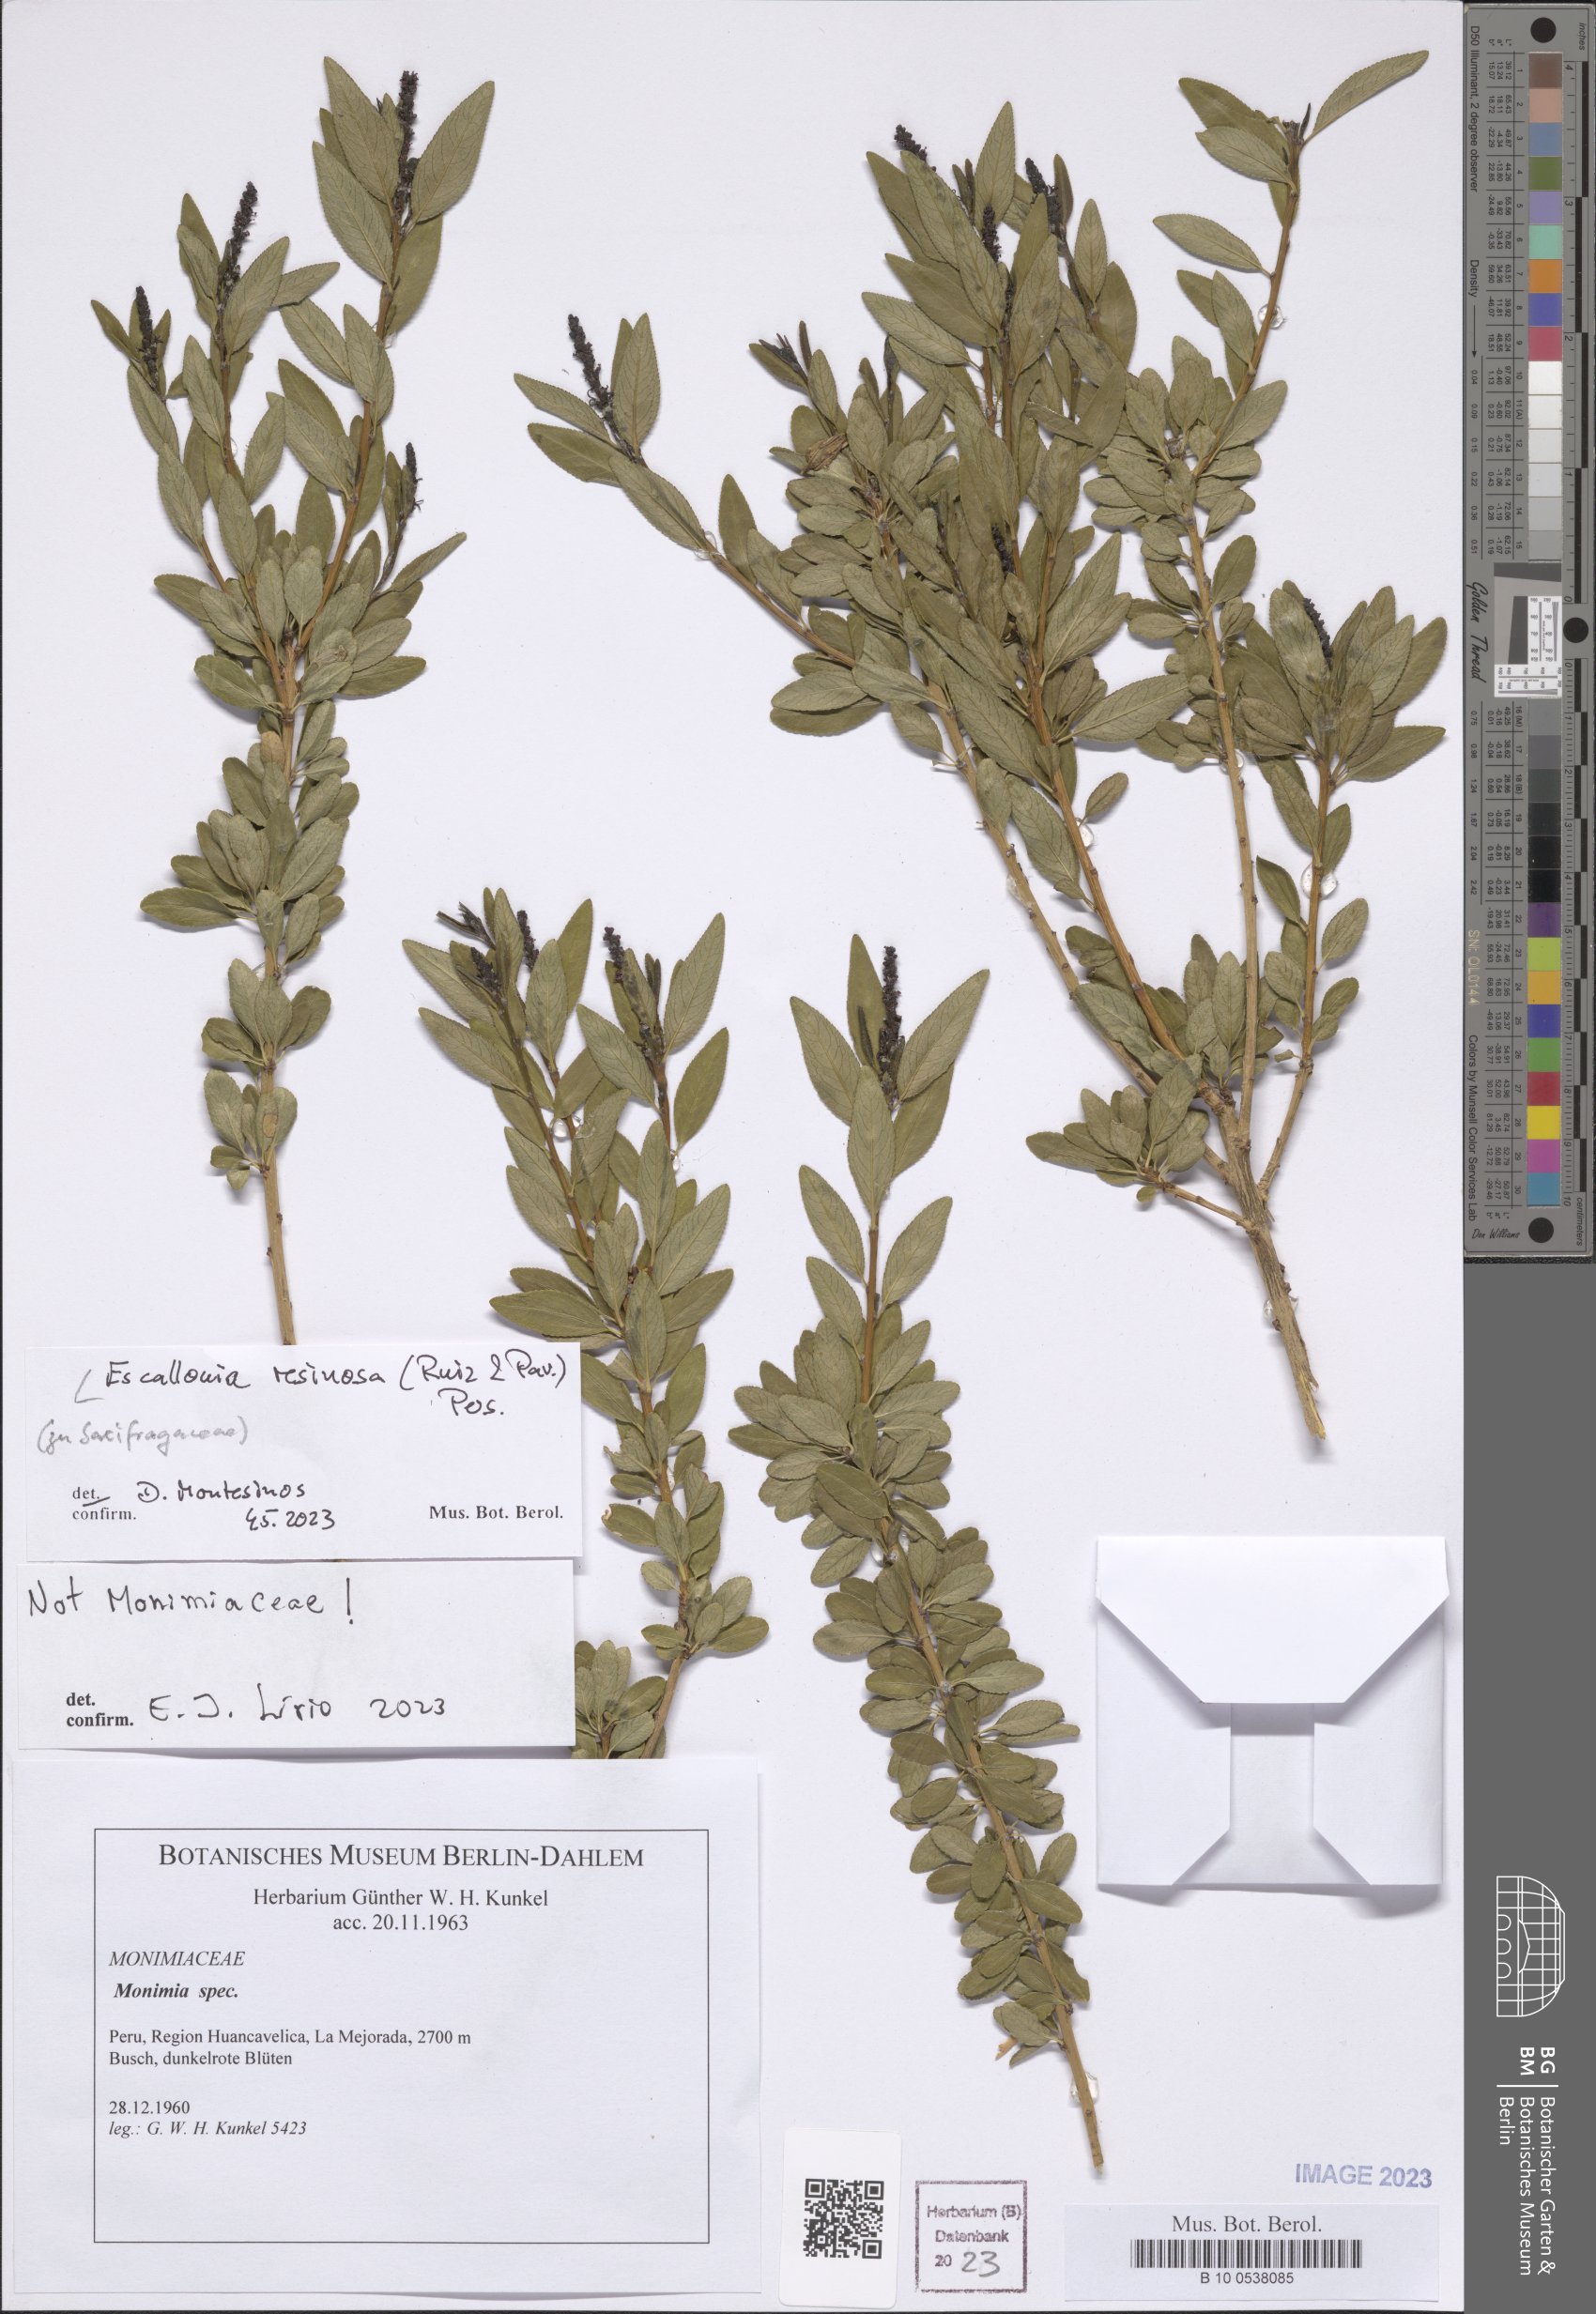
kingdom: Plantae
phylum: Tracheophyta
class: Magnoliopsida
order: Escalloniales
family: Escalloniaceae
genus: Escallonia
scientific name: Escallonia resinosa
